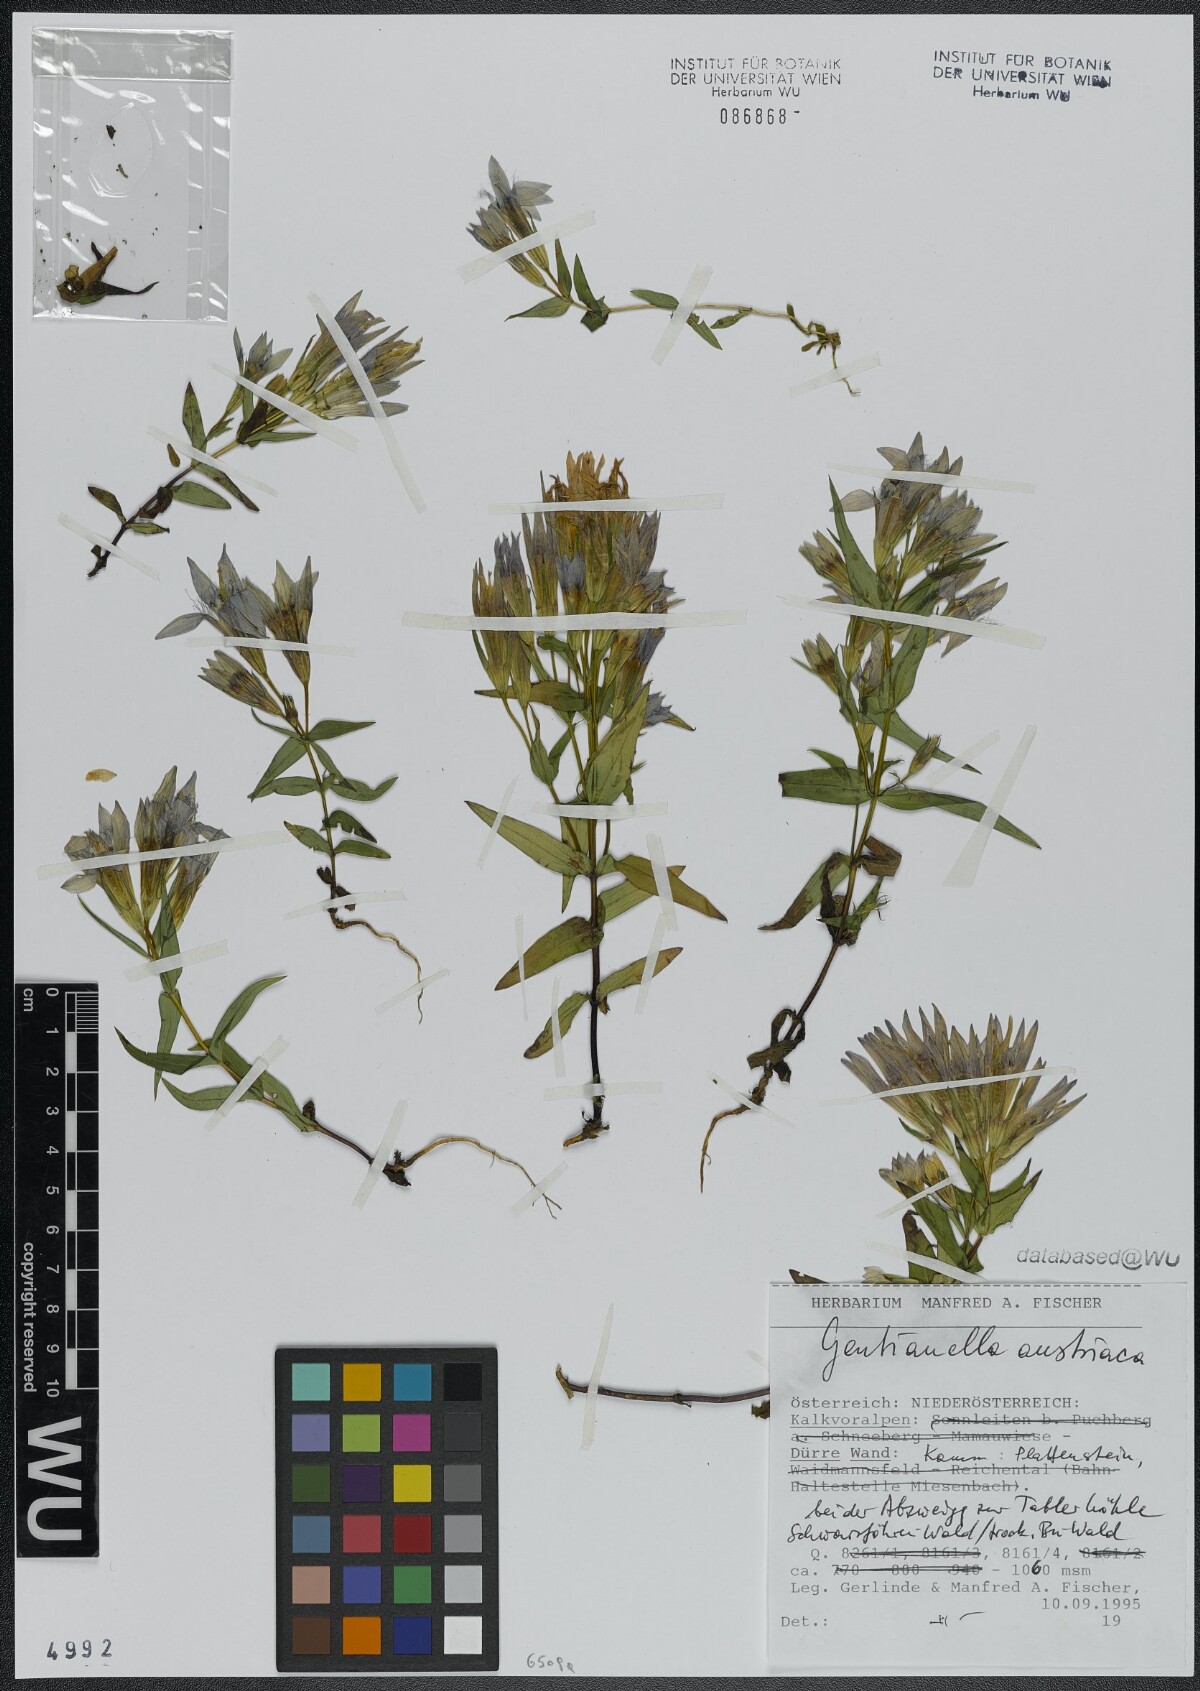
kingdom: Plantae
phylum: Tracheophyta
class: Magnoliopsida
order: Gentianales
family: Gentianaceae
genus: Gentianella
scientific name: Gentianella austriaca
